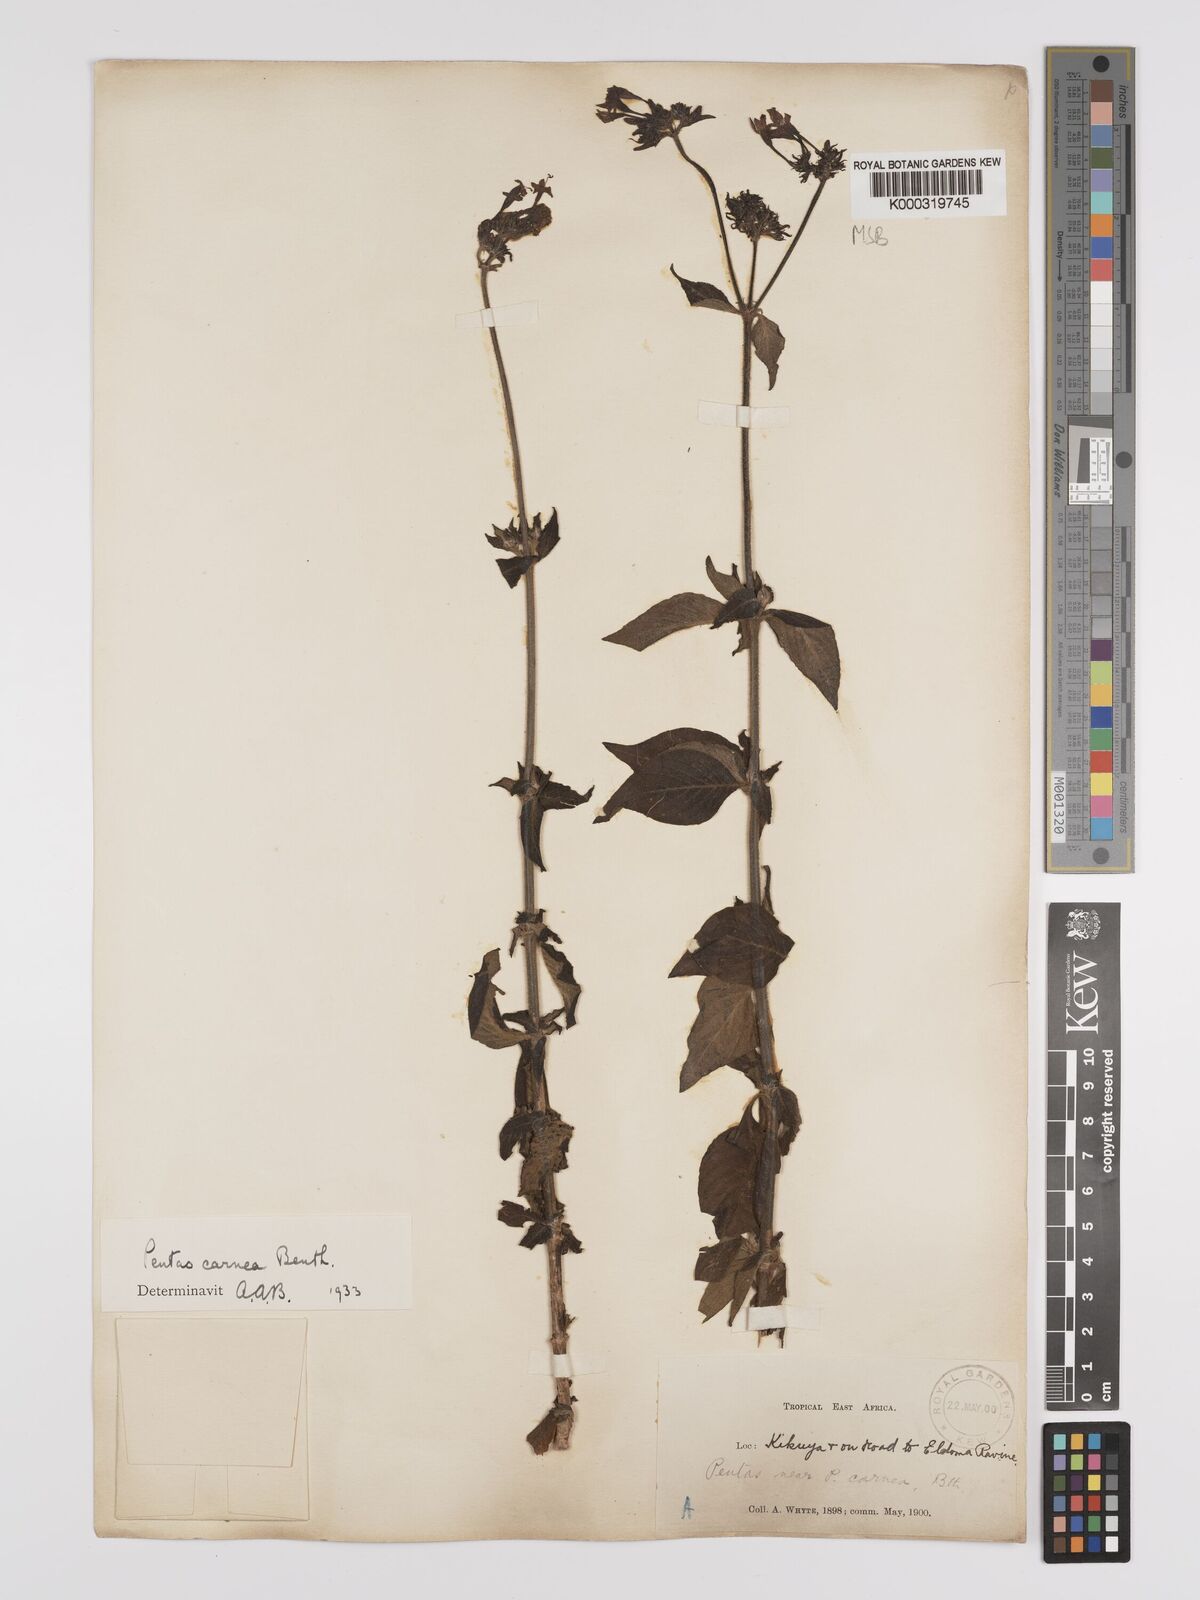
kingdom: Plantae
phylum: Tracheophyta
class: Magnoliopsida
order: Gentianales
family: Rubiaceae
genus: Pentas
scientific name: Pentas lanceolata
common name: Egyptian starcluster
